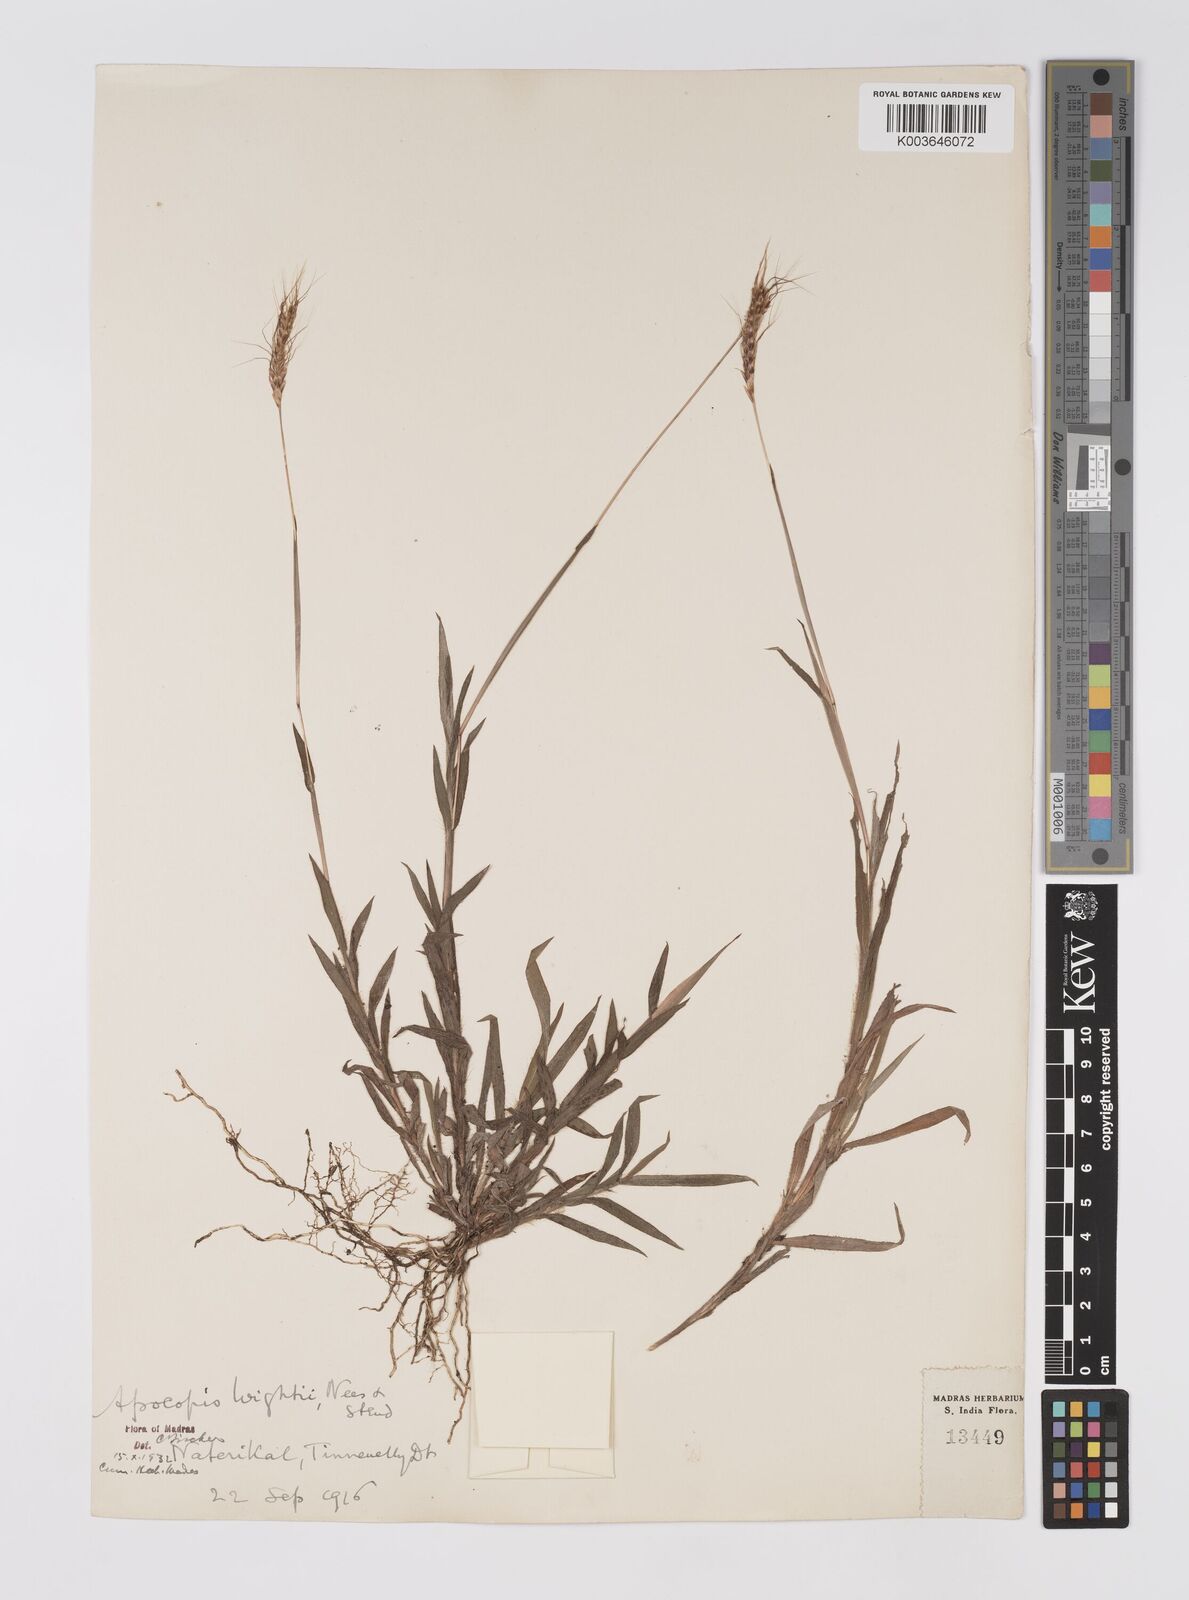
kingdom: Plantae
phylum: Tracheophyta
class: Liliopsida
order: Poales
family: Poaceae
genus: Apocopis
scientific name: Apocopis courtallumensis
